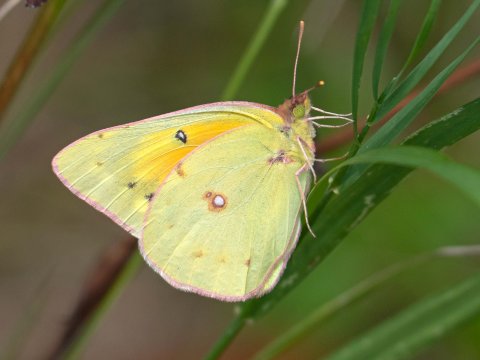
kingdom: Animalia
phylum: Arthropoda
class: Insecta
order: Lepidoptera
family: Pieridae
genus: Colias
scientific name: Colias eurytheme
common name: Orange Sulphur
